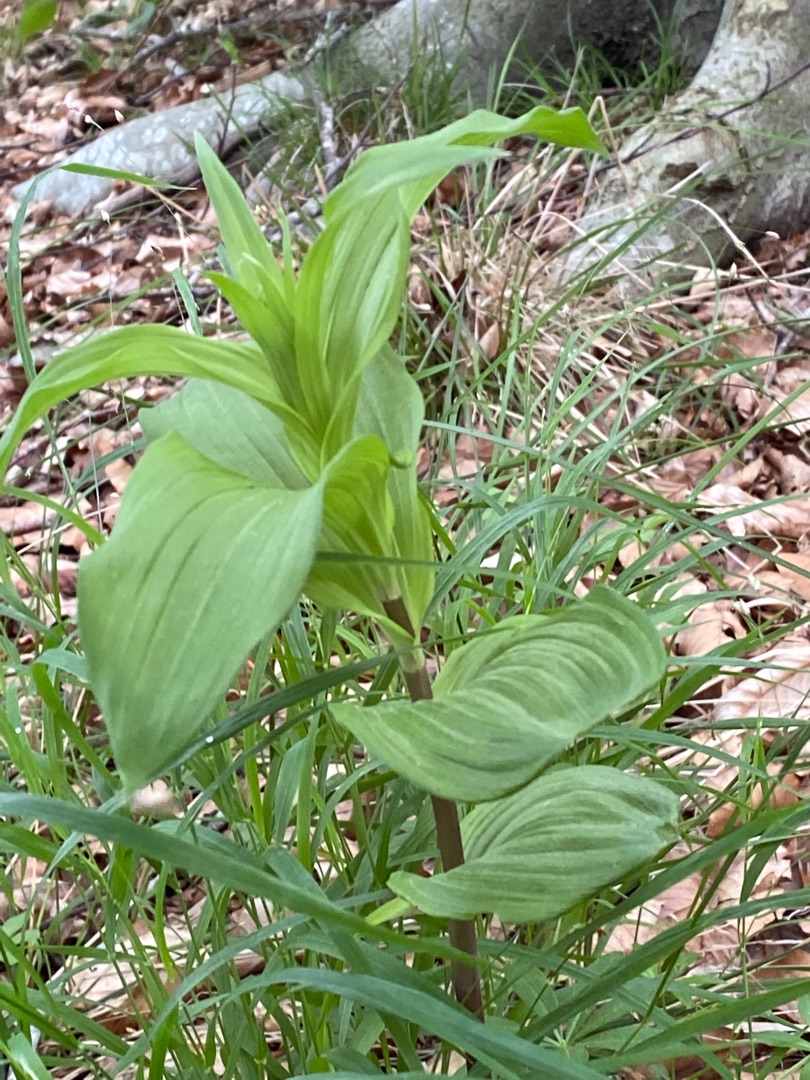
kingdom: Plantae
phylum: Tracheophyta
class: Liliopsida
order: Asparagales
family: Orchidaceae
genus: Epipactis
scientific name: Epipactis helleborine
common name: Skov-hullæbe
